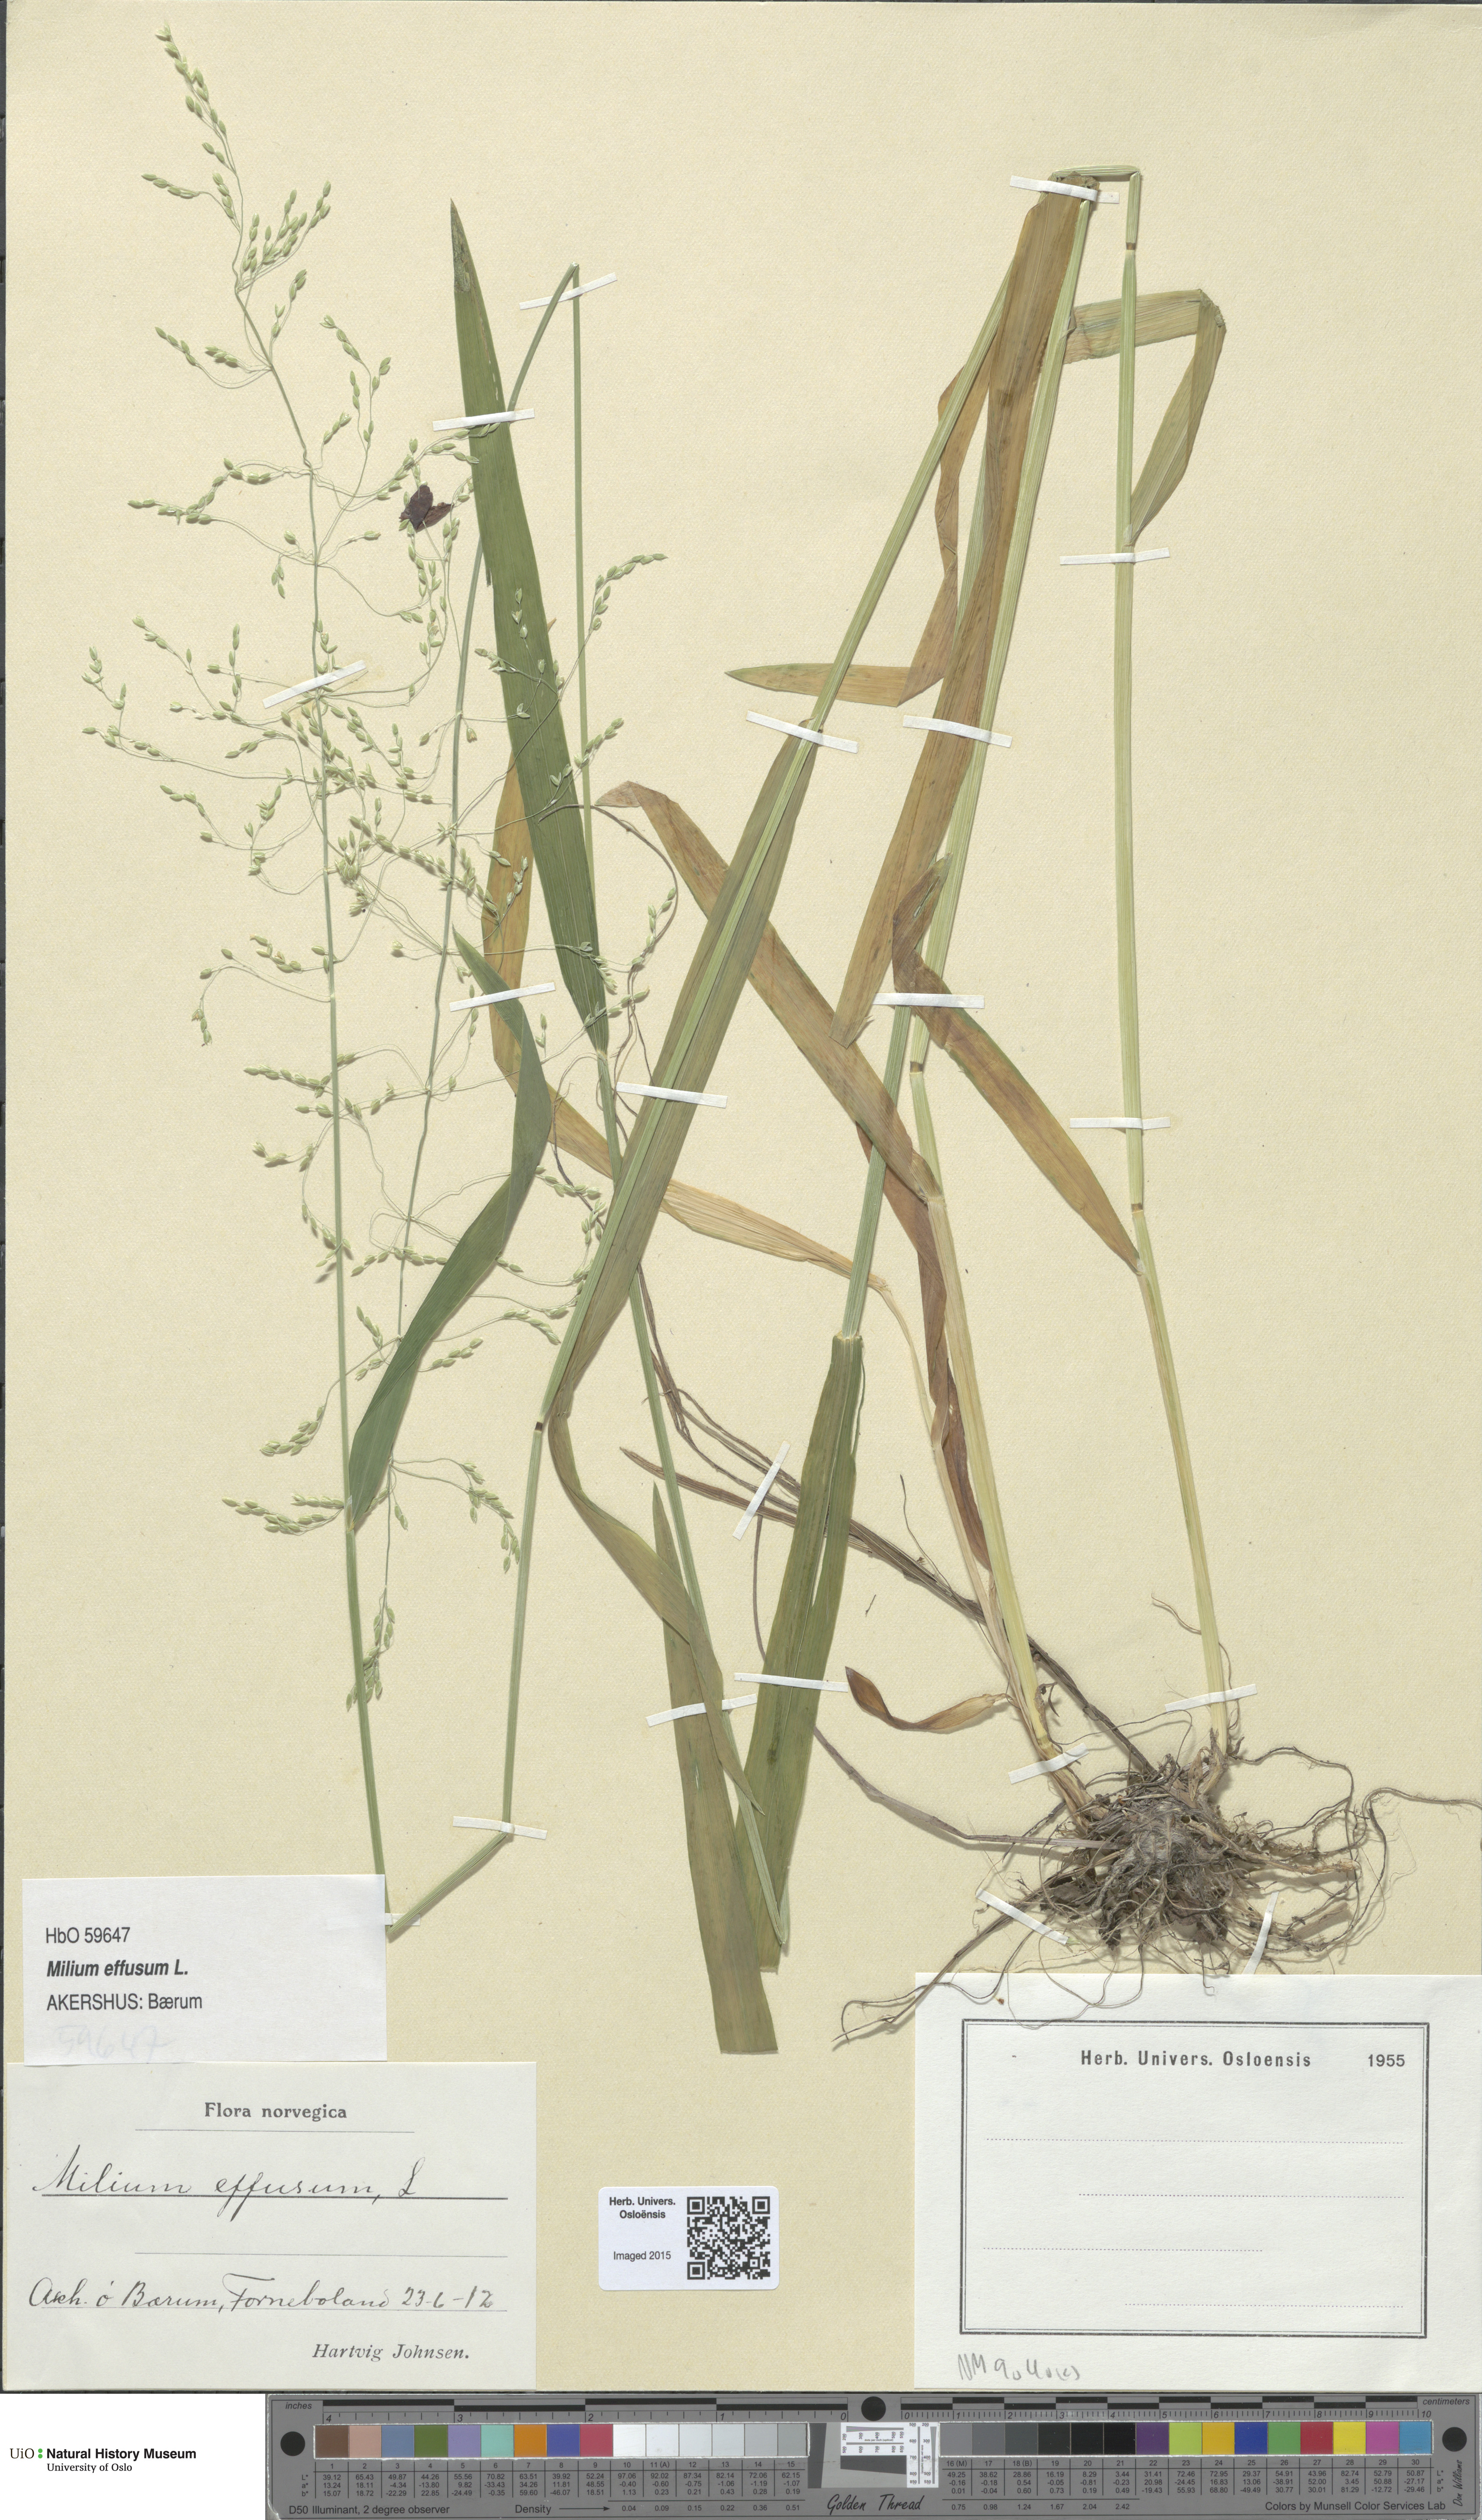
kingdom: Plantae
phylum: Tracheophyta
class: Liliopsida
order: Poales
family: Poaceae
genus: Milium
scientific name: Milium effusum
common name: Wood millet
